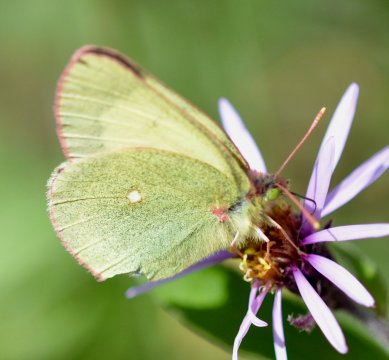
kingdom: Animalia
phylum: Arthropoda
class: Insecta
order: Lepidoptera
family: Pieridae
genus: Colias
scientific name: Colias palaeno
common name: Chippewa Sulphur
